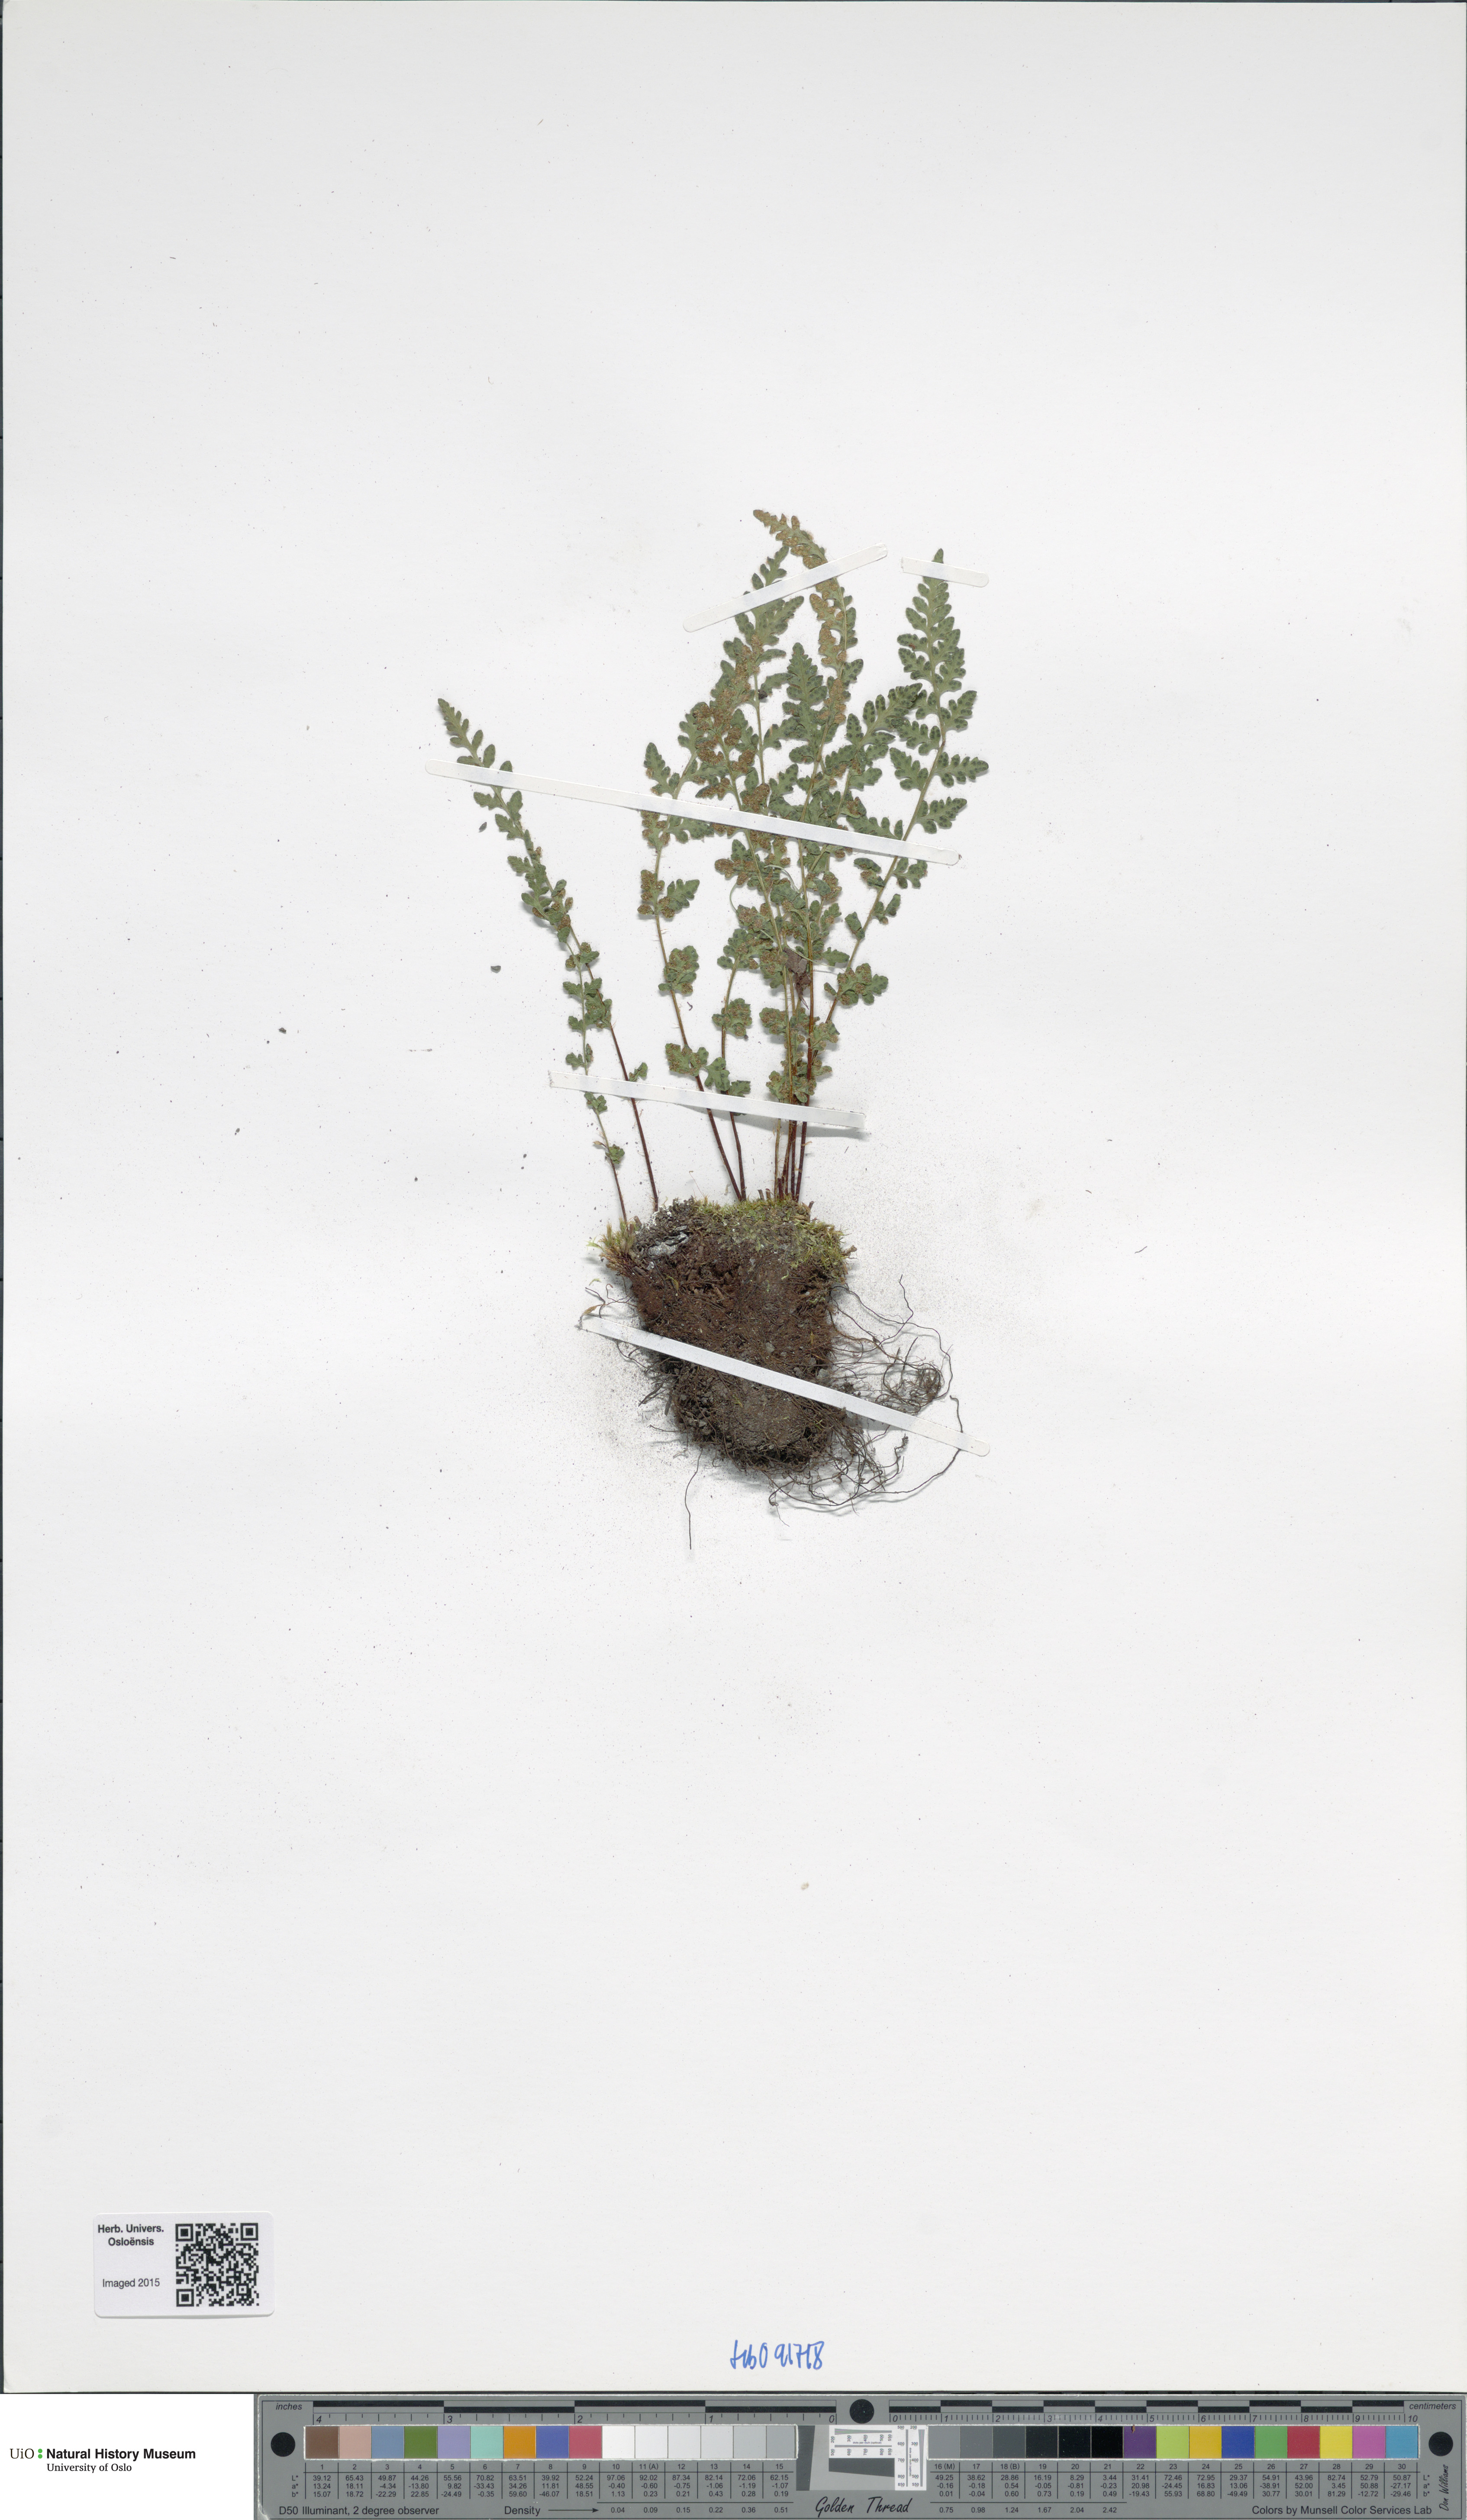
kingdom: Plantae
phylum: Tracheophyta
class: Polypodiopsida
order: Polypodiales
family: Woodsiaceae
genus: Woodsia
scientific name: Woodsia alpina
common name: Alpine woodsia
